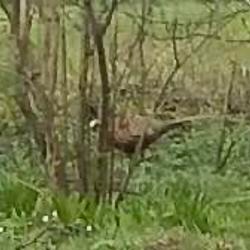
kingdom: Animalia
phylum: Chordata
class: Aves
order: Galliformes
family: Phasianidae
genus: Phasianus
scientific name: Phasianus colchicus
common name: Fasan
